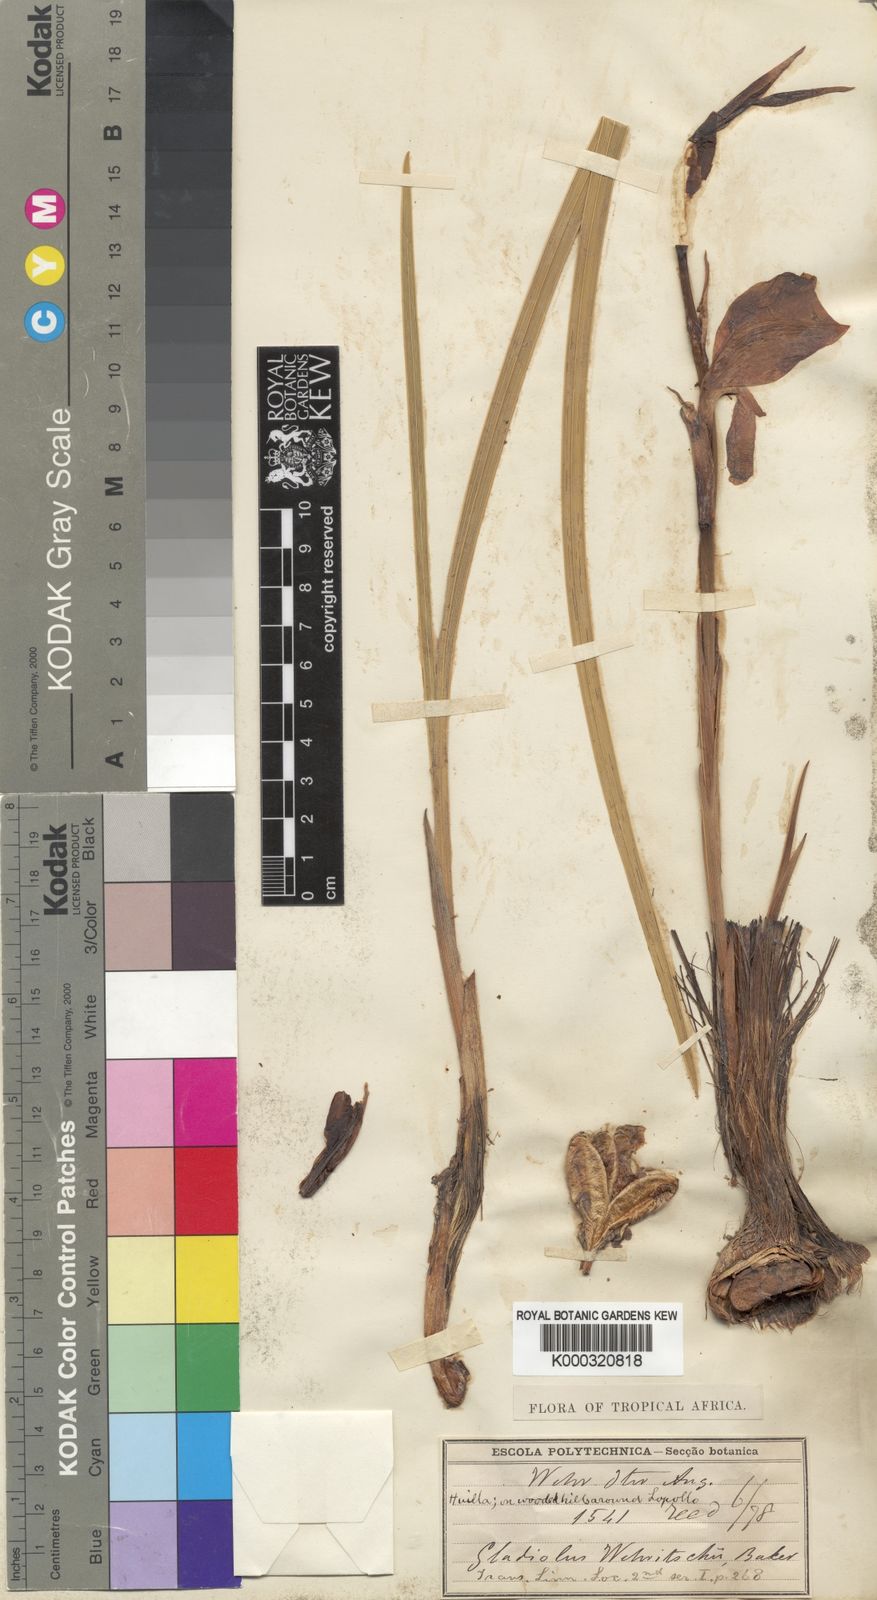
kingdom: Plantae
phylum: Tracheophyta
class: Liliopsida
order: Asparagales
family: Iridaceae
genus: Gladiolus
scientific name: Gladiolus dalenii
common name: Cornflag
